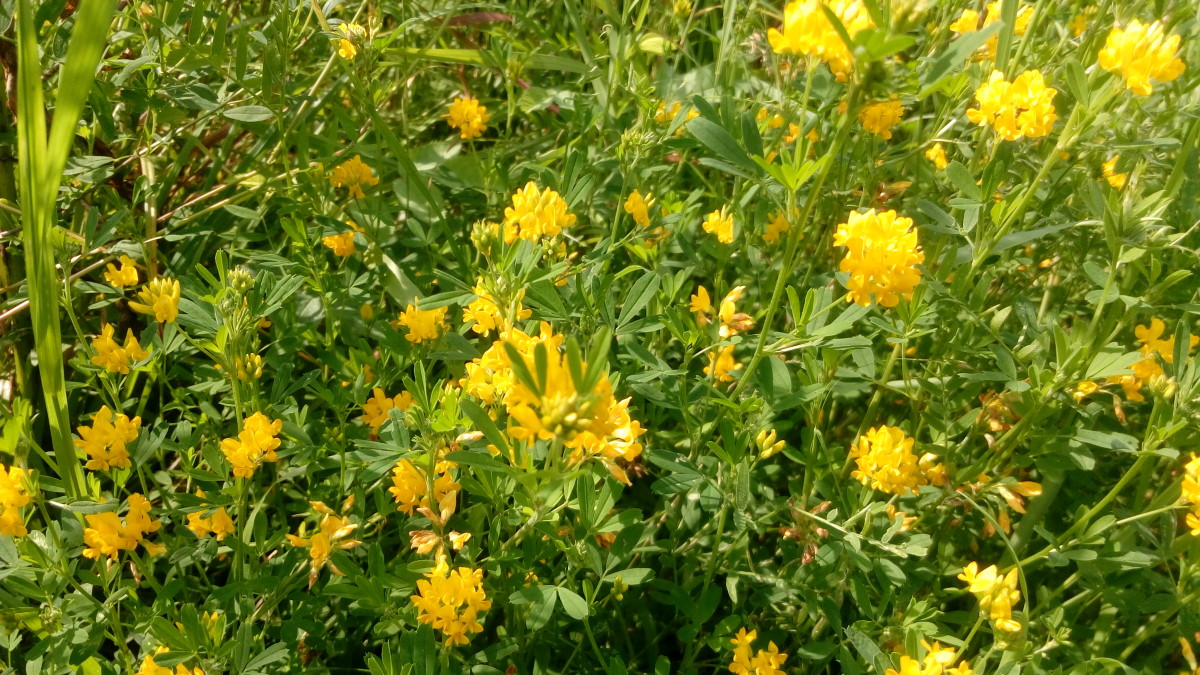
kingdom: Plantae
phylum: Tracheophyta
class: Magnoliopsida
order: Fabales
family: Fabaceae
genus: Medicago
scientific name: Medicago falcata
